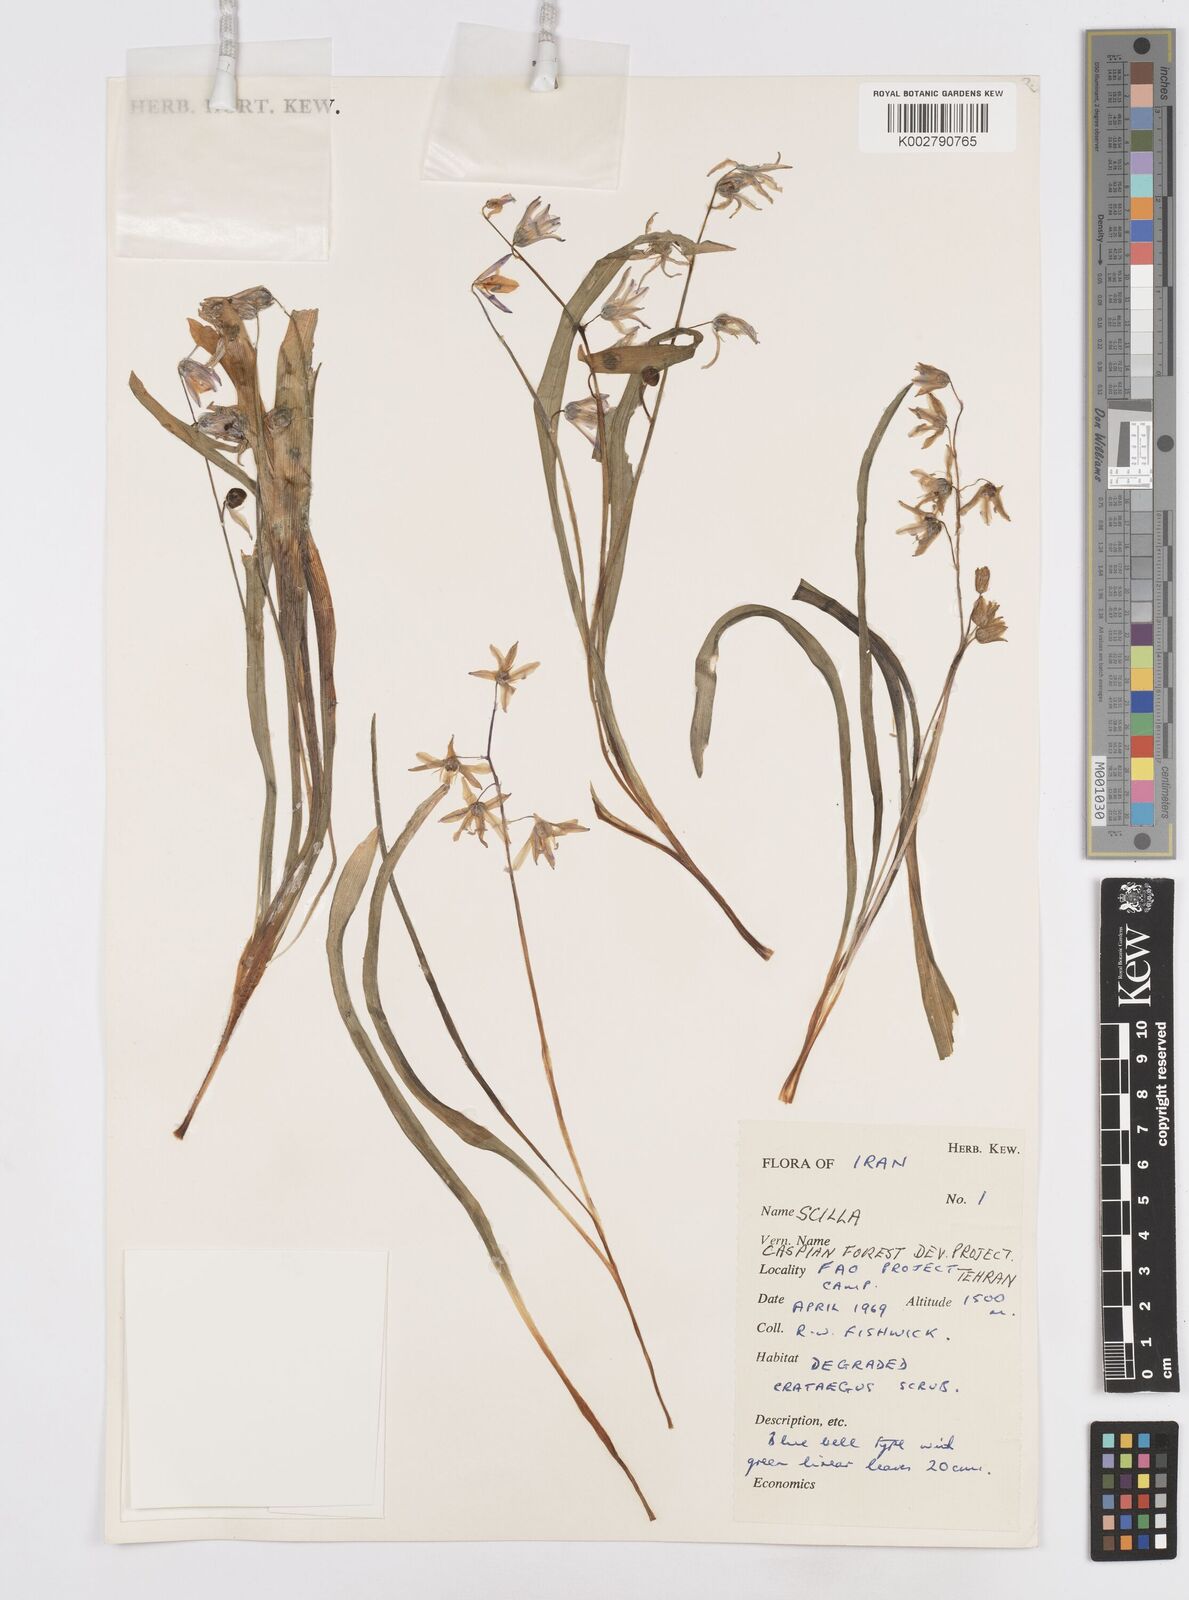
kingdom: Plantae
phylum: Tracheophyta
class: Liliopsida
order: Asparagales
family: Asparagaceae
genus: Fessia
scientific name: Fessia hohenackeri
